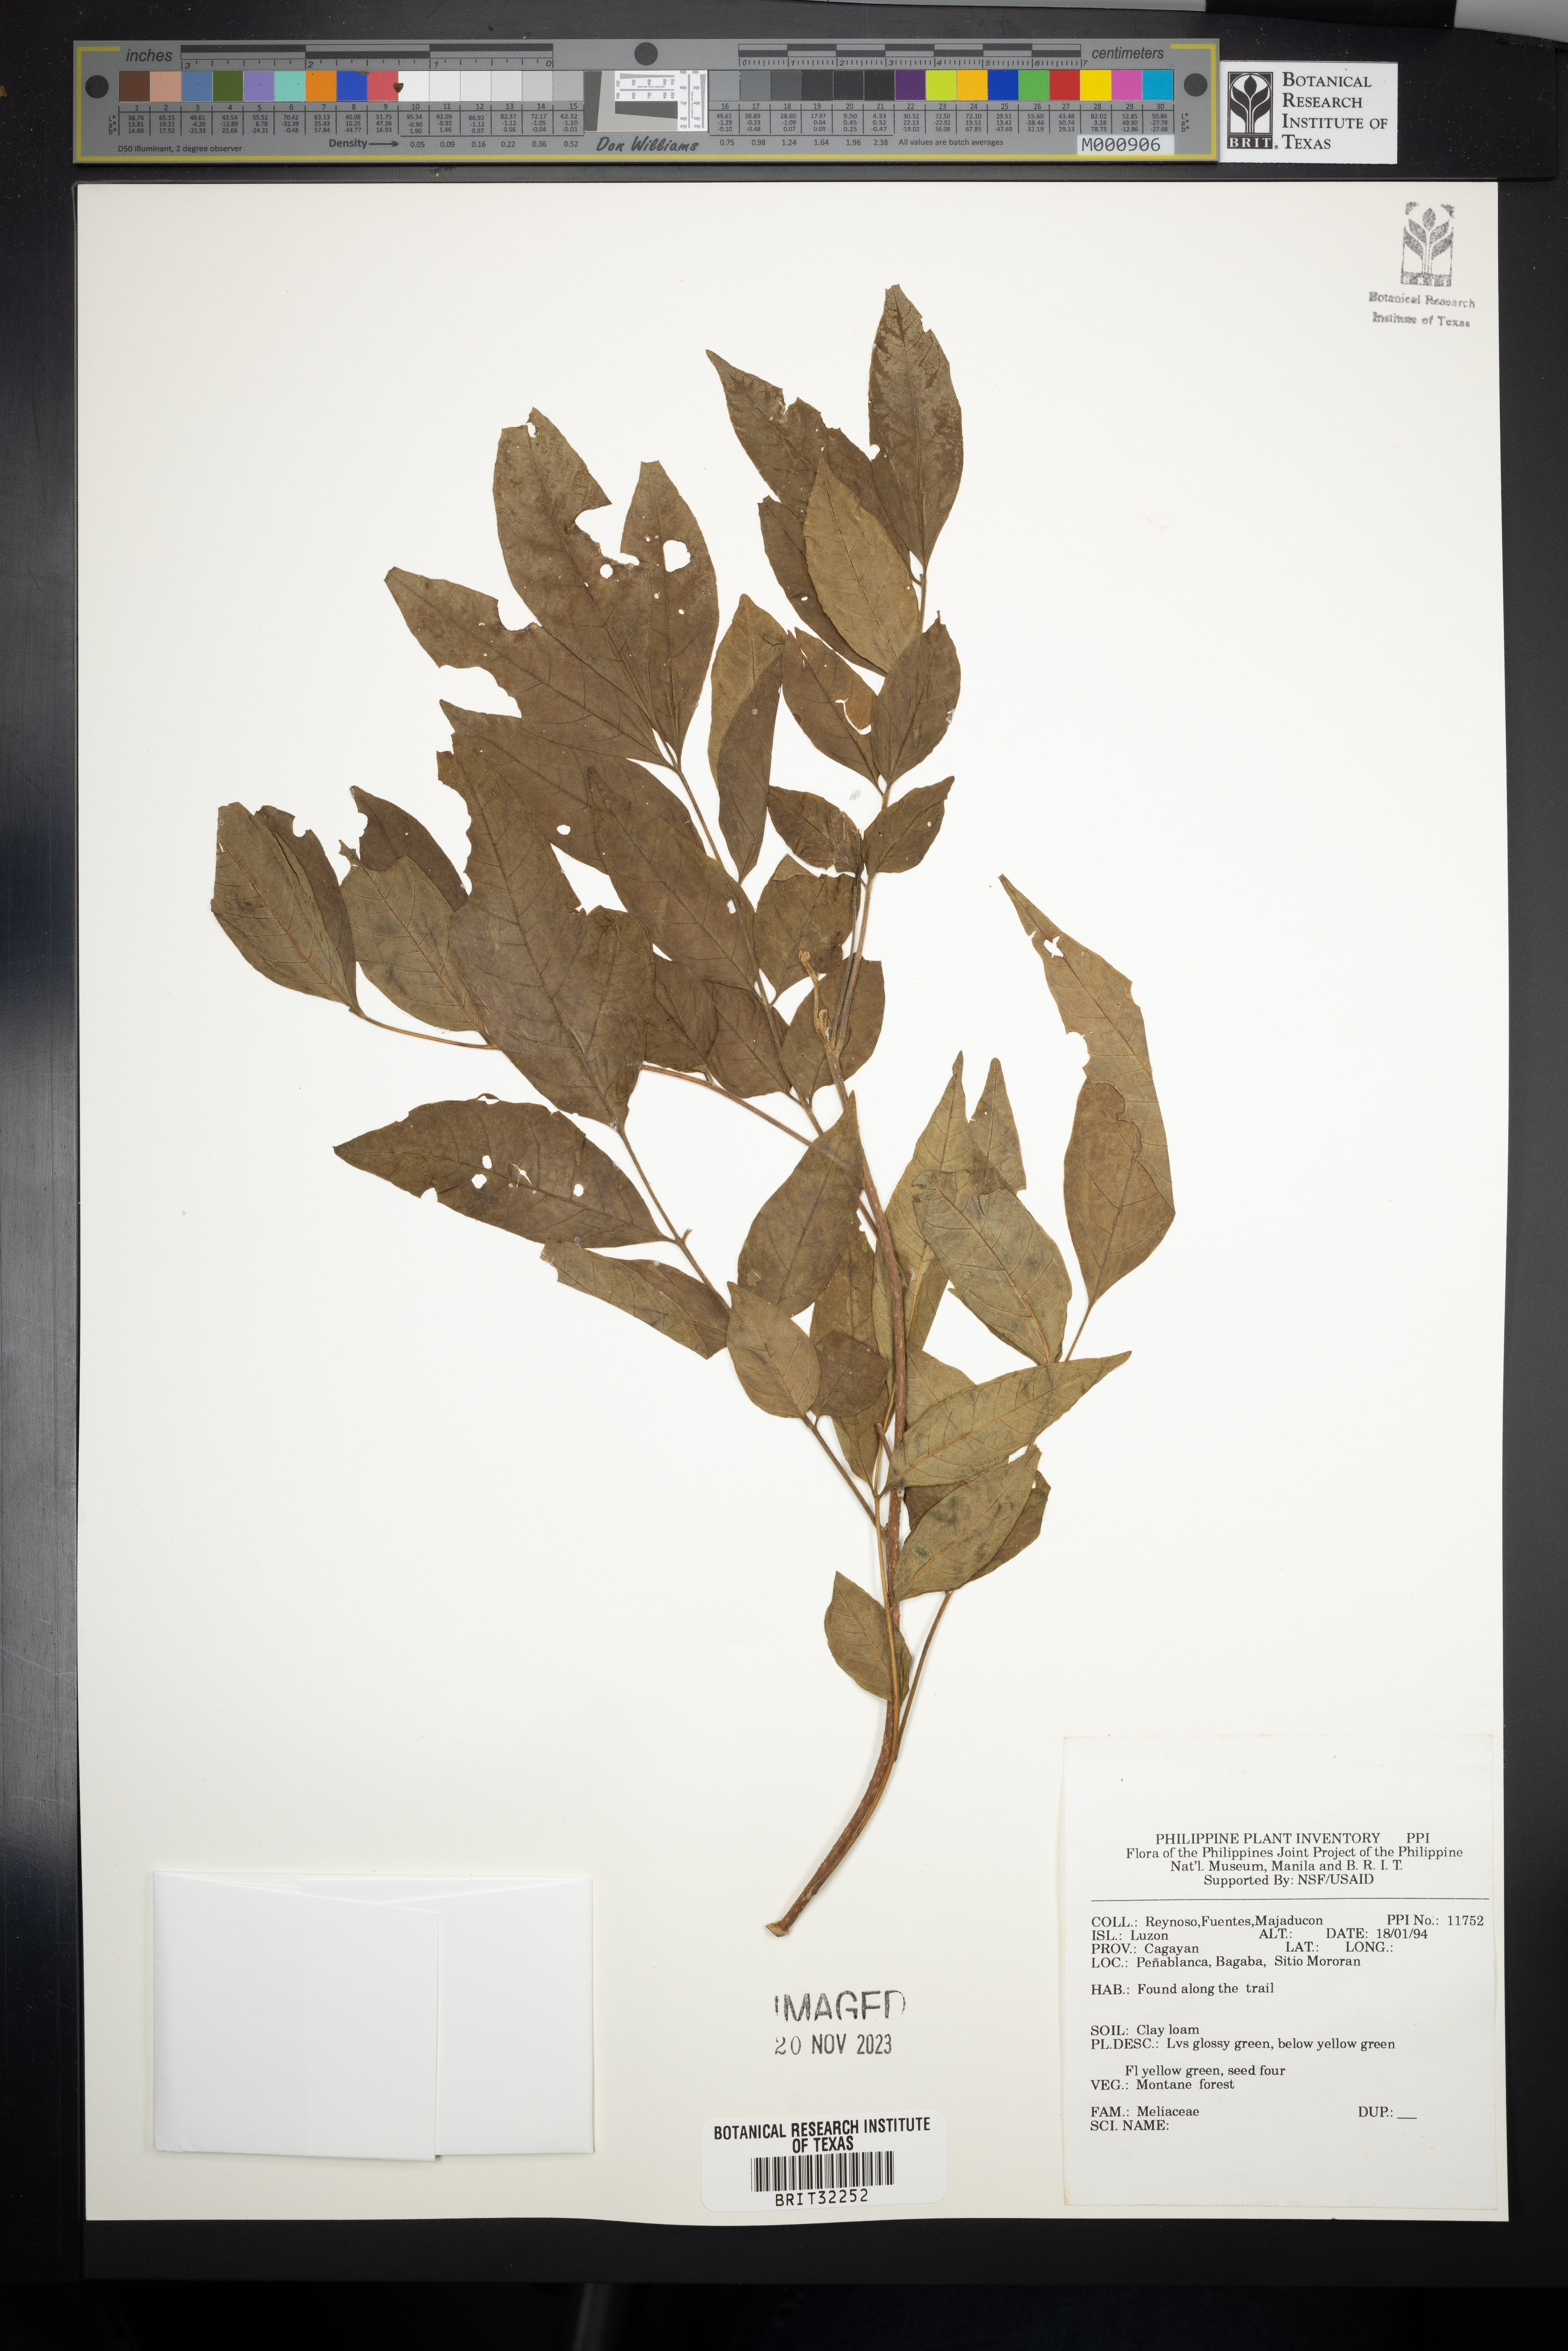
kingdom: Plantae
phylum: Tracheophyta
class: Magnoliopsida
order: Sapindales
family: Meliaceae
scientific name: Meliaceae
